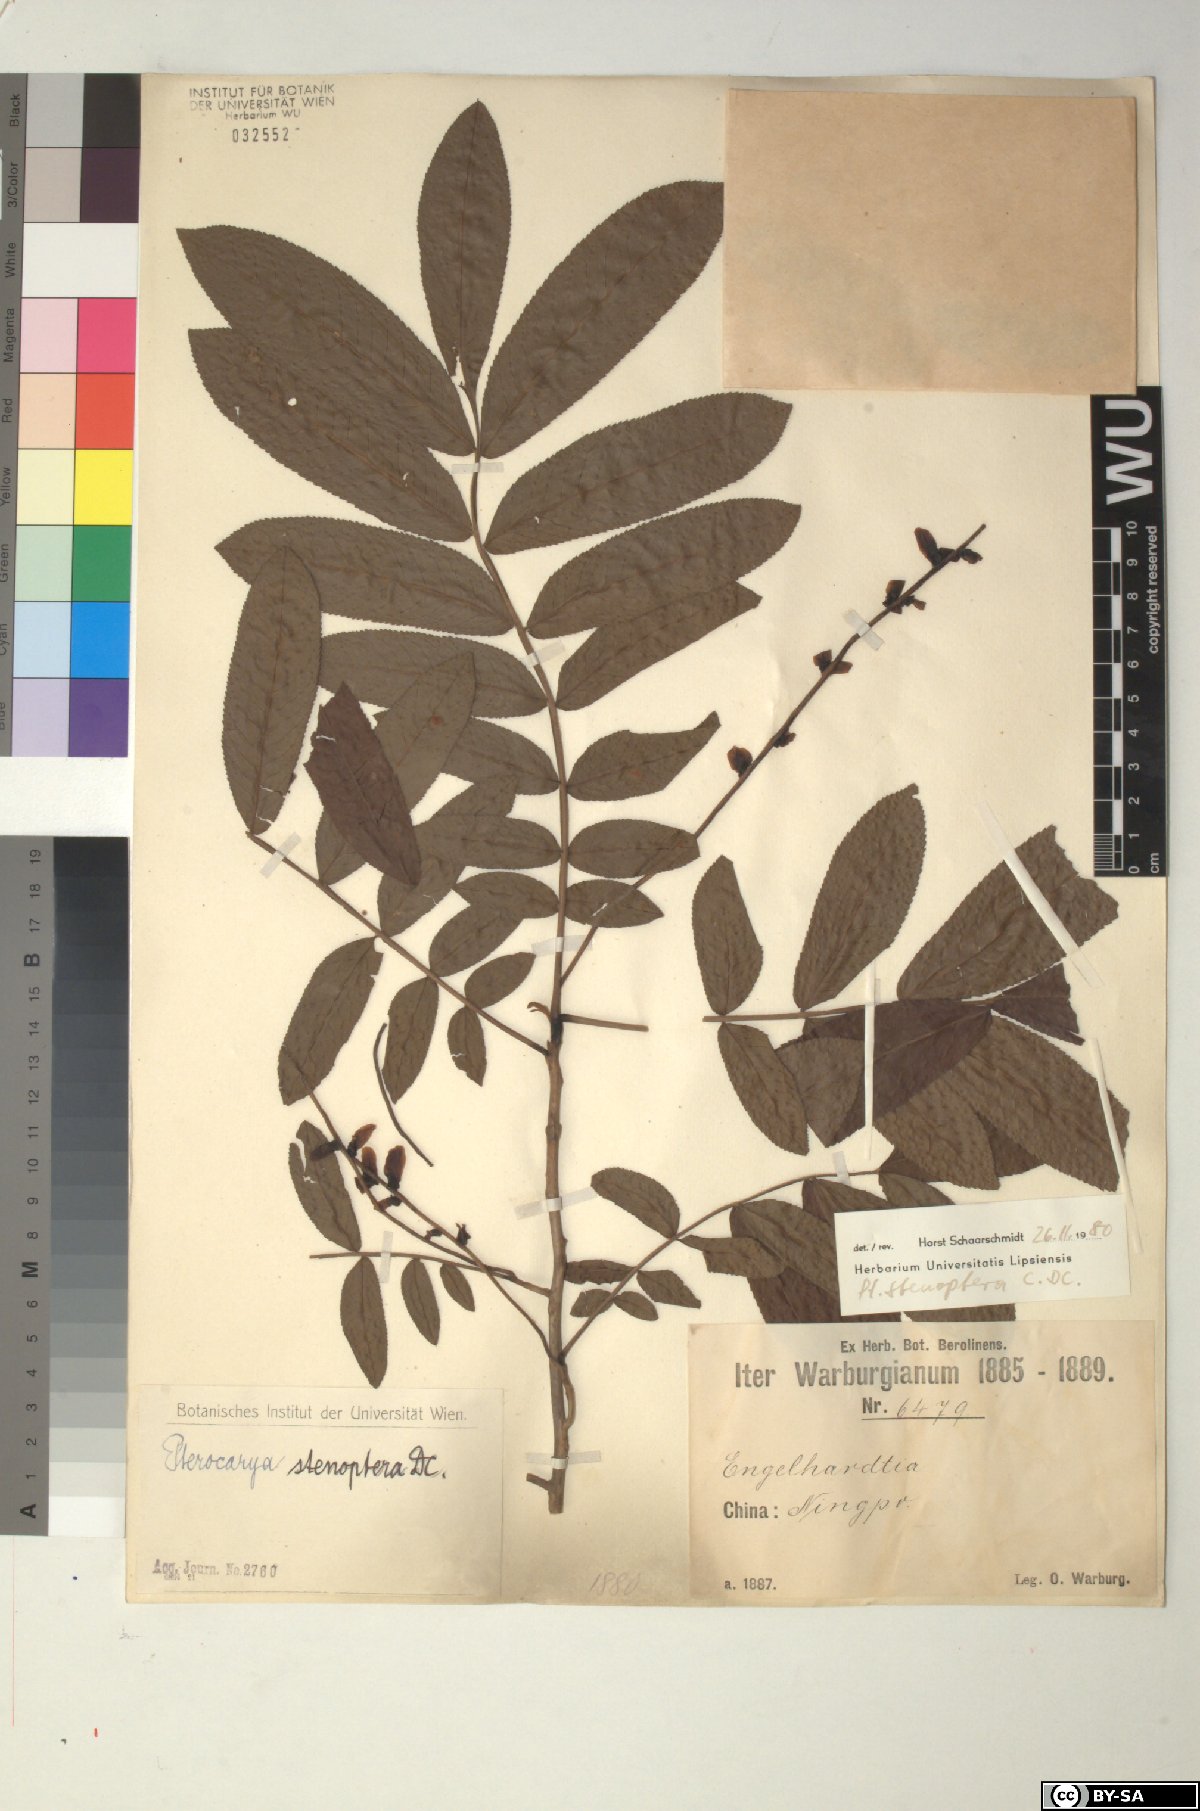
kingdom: Plantae
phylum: Tracheophyta
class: Magnoliopsida
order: Fagales
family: Juglandaceae
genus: Pterocarya
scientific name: Pterocarya stenoptera
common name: Chinese wingnut
